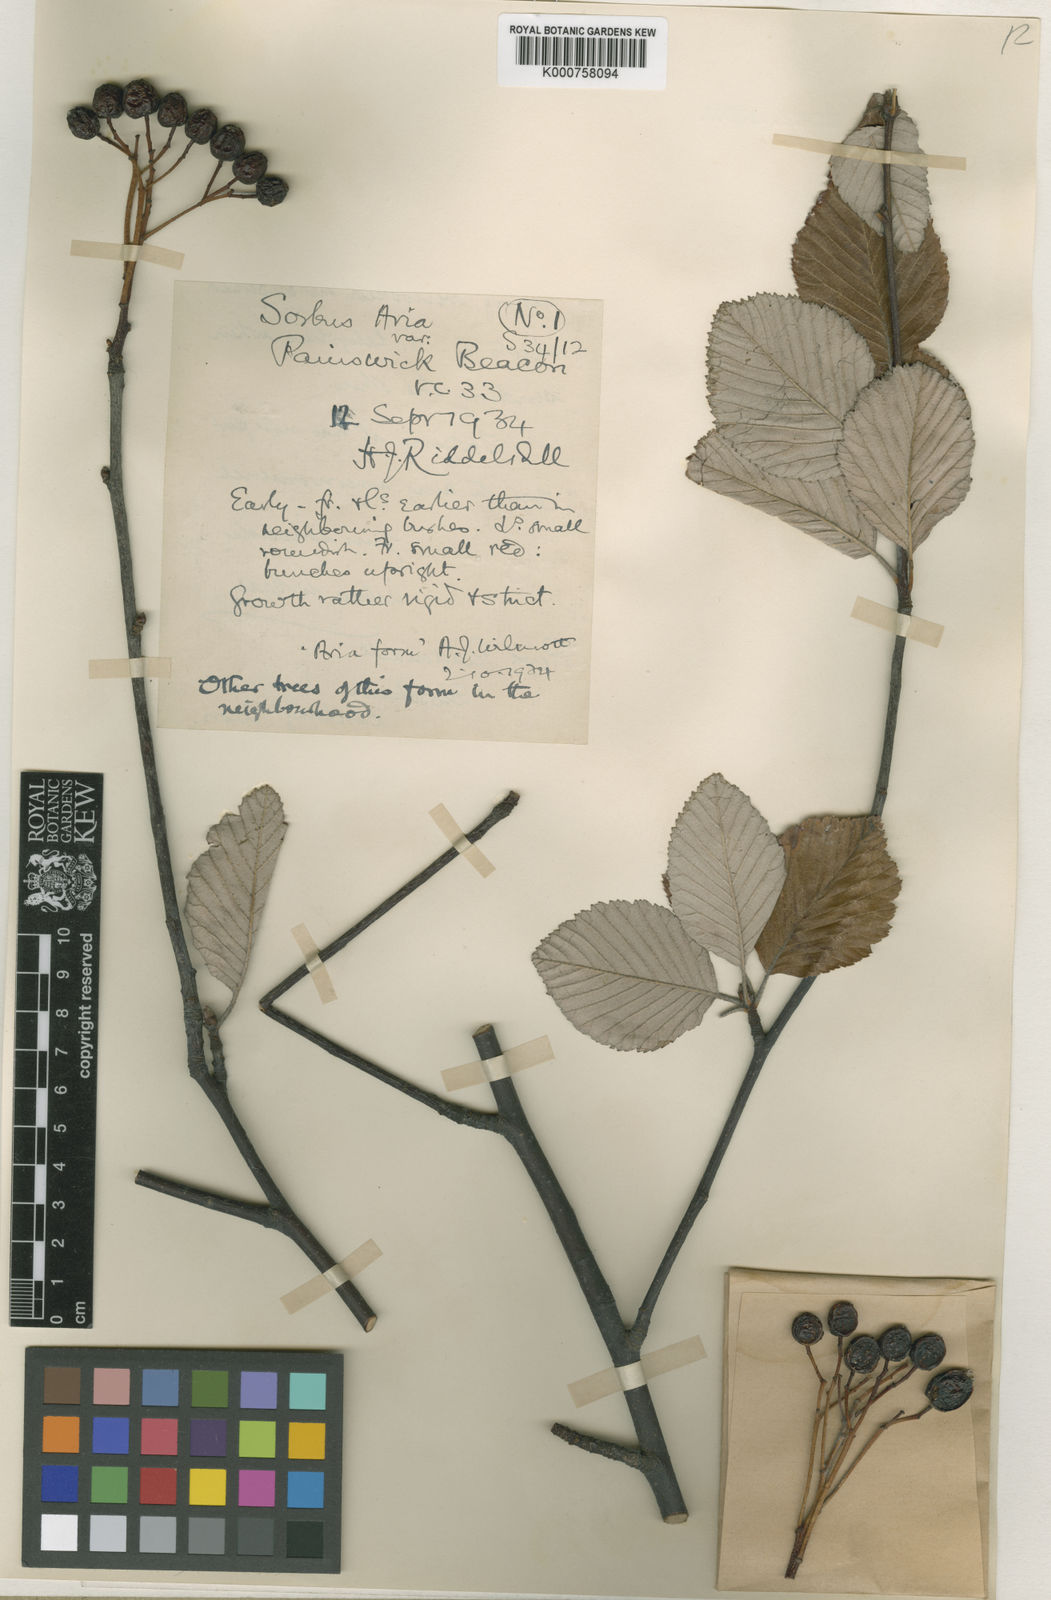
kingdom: Plantae
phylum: Tracheophyta
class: Magnoliopsida
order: Rosales
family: Rosaceae
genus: Aria
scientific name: Aria edulis
